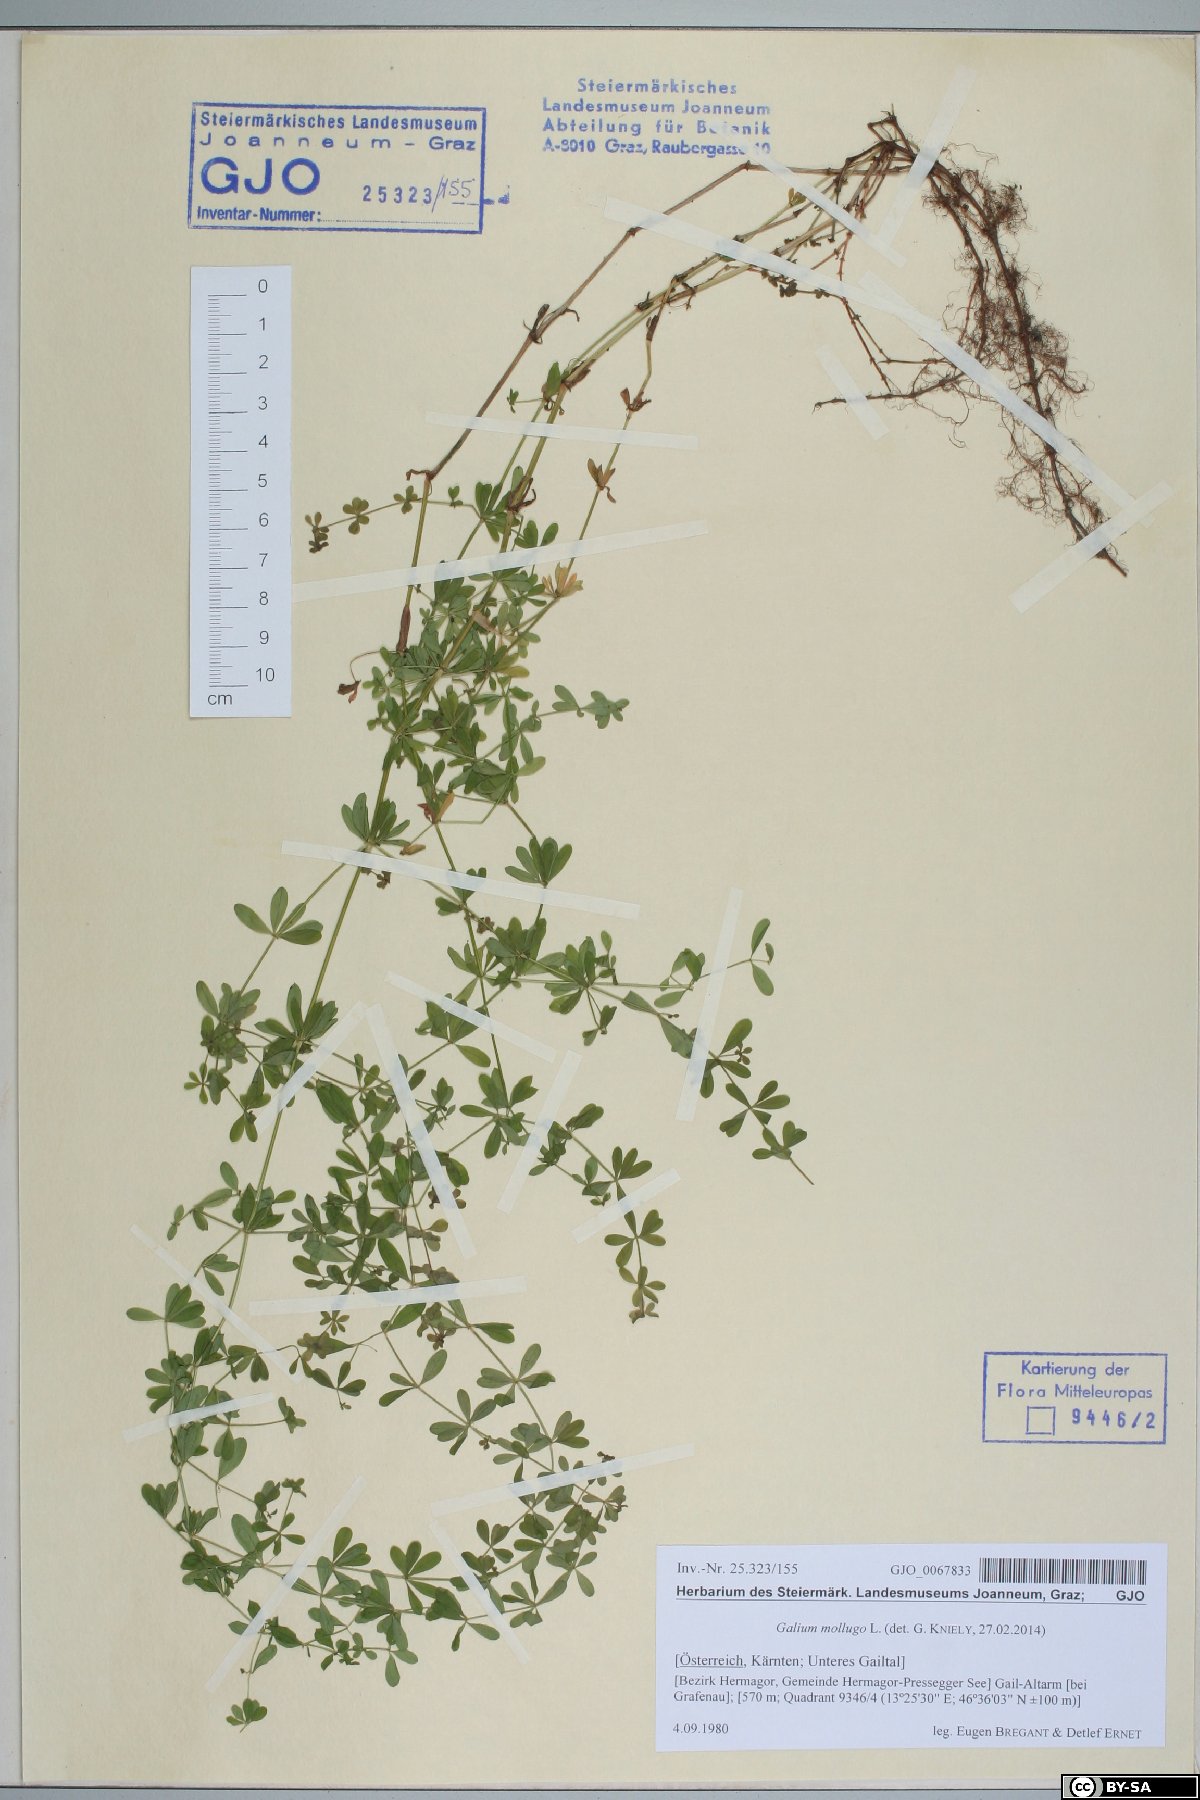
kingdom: Plantae
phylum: Tracheophyta
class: Magnoliopsida
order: Gentianales
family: Rubiaceae
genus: Galium
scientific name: Galium mollugo
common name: Hedge bedstraw
